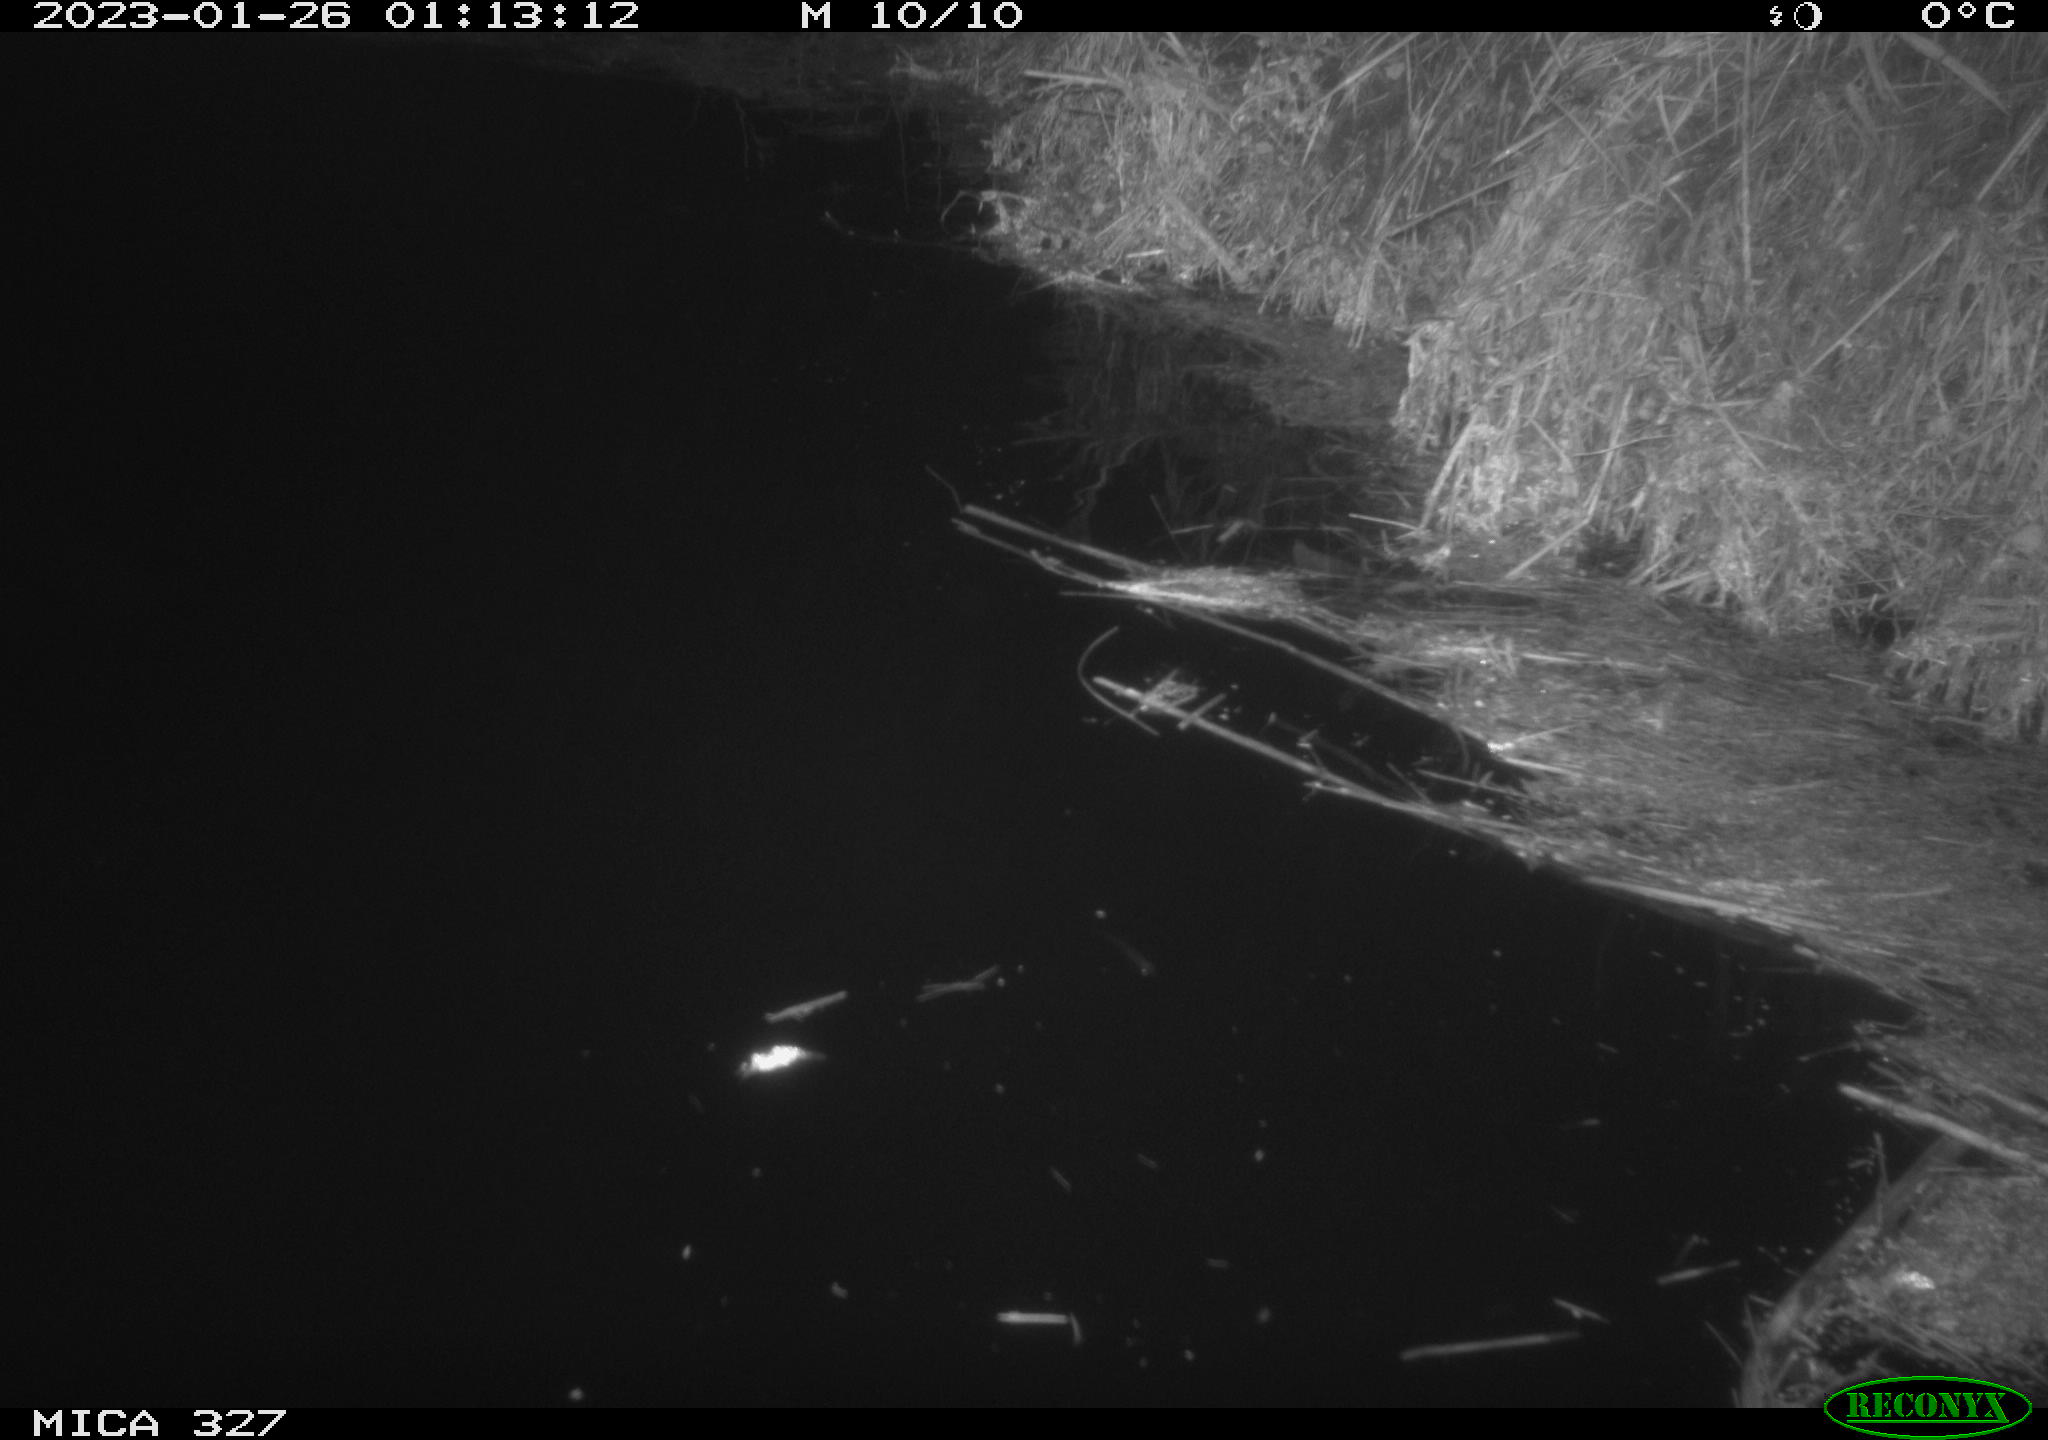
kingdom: Animalia
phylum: Chordata
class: Mammalia
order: Rodentia
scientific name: Rodentia
